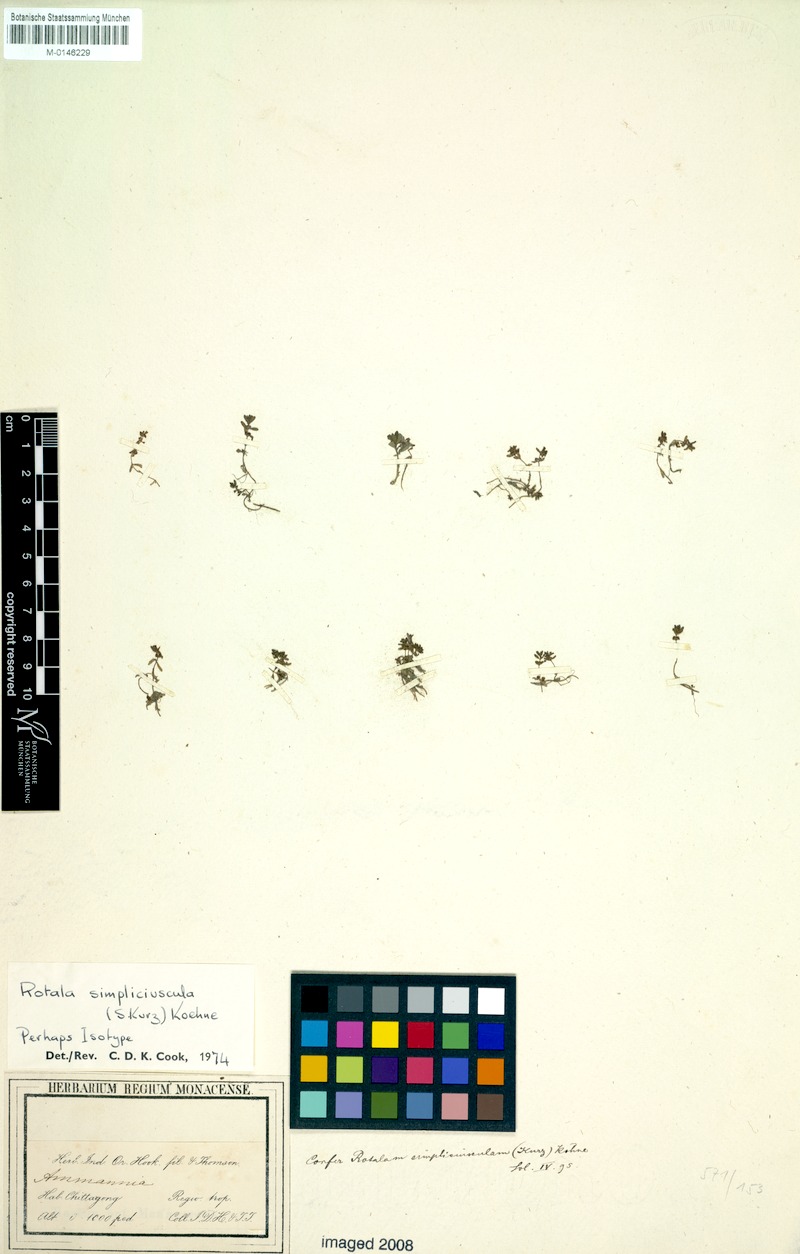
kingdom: Plantae
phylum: Tracheophyta
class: Magnoliopsida
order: Myrtales
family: Lythraceae
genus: Rotala
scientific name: Rotala simpliciuscula
